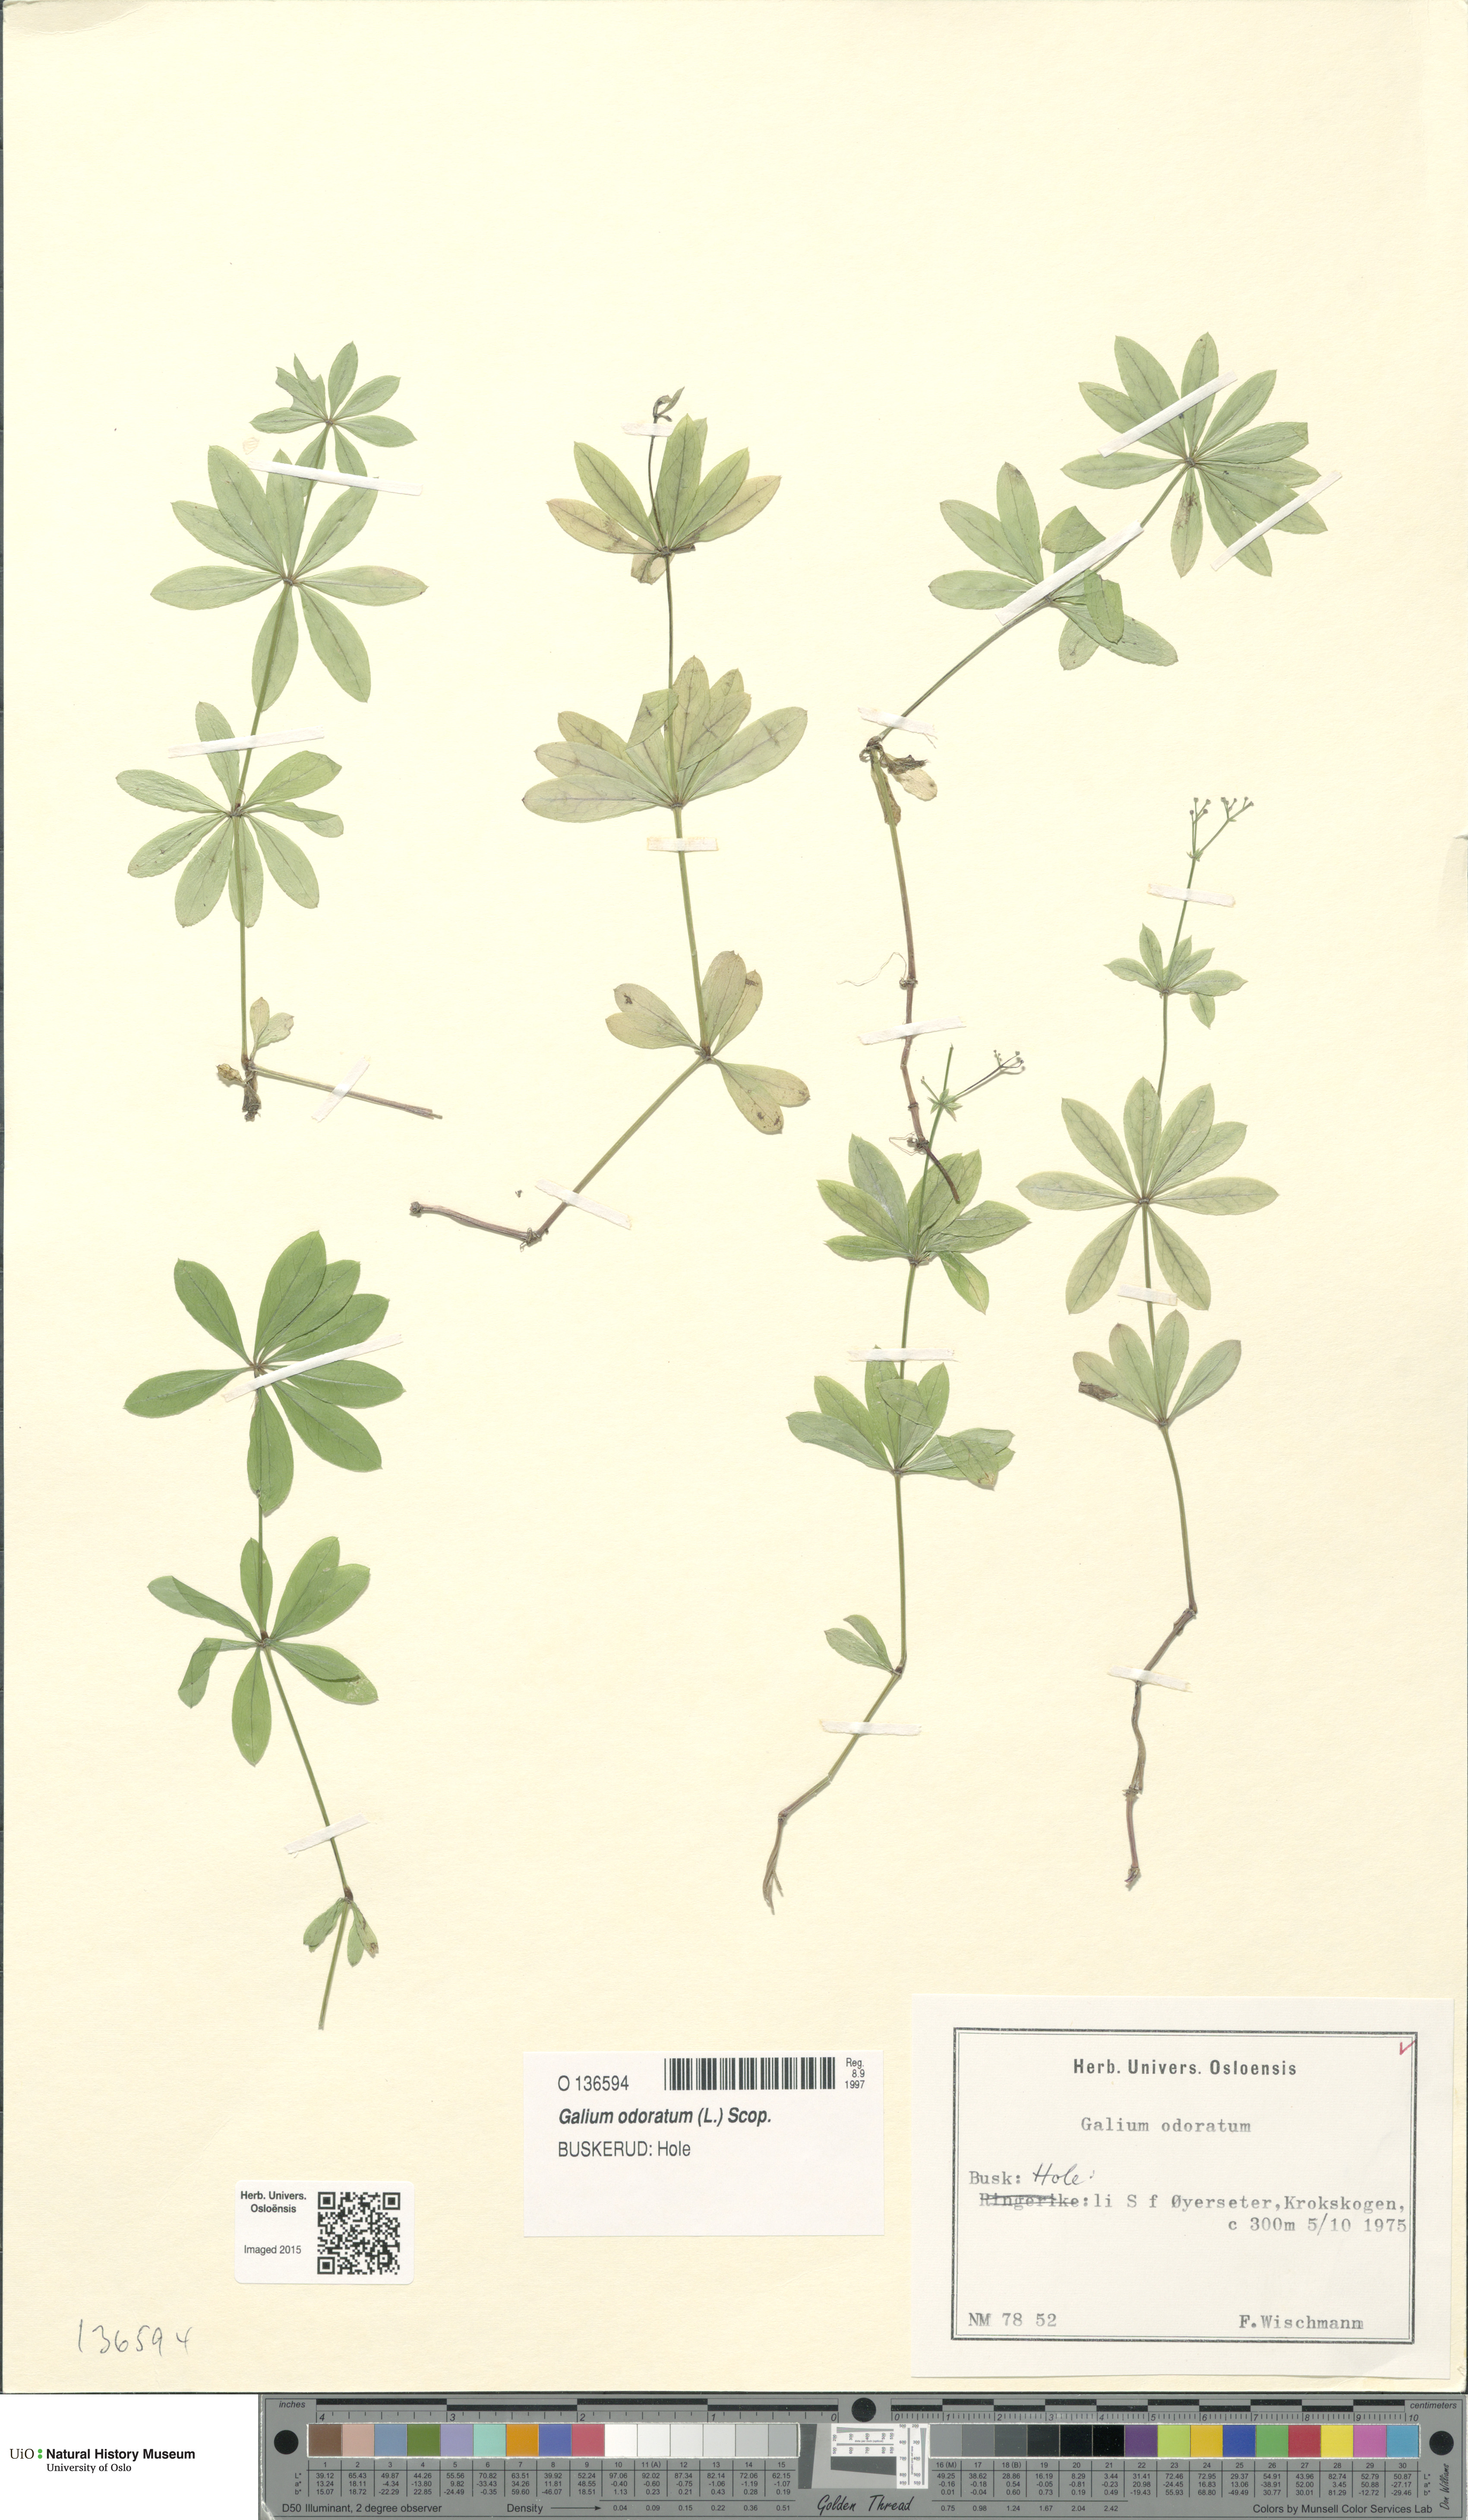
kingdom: Plantae
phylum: Tracheophyta
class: Magnoliopsida
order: Gentianales
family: Rubiaceae
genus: Galium
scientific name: Galium odoratum
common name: Sweet woodruff
